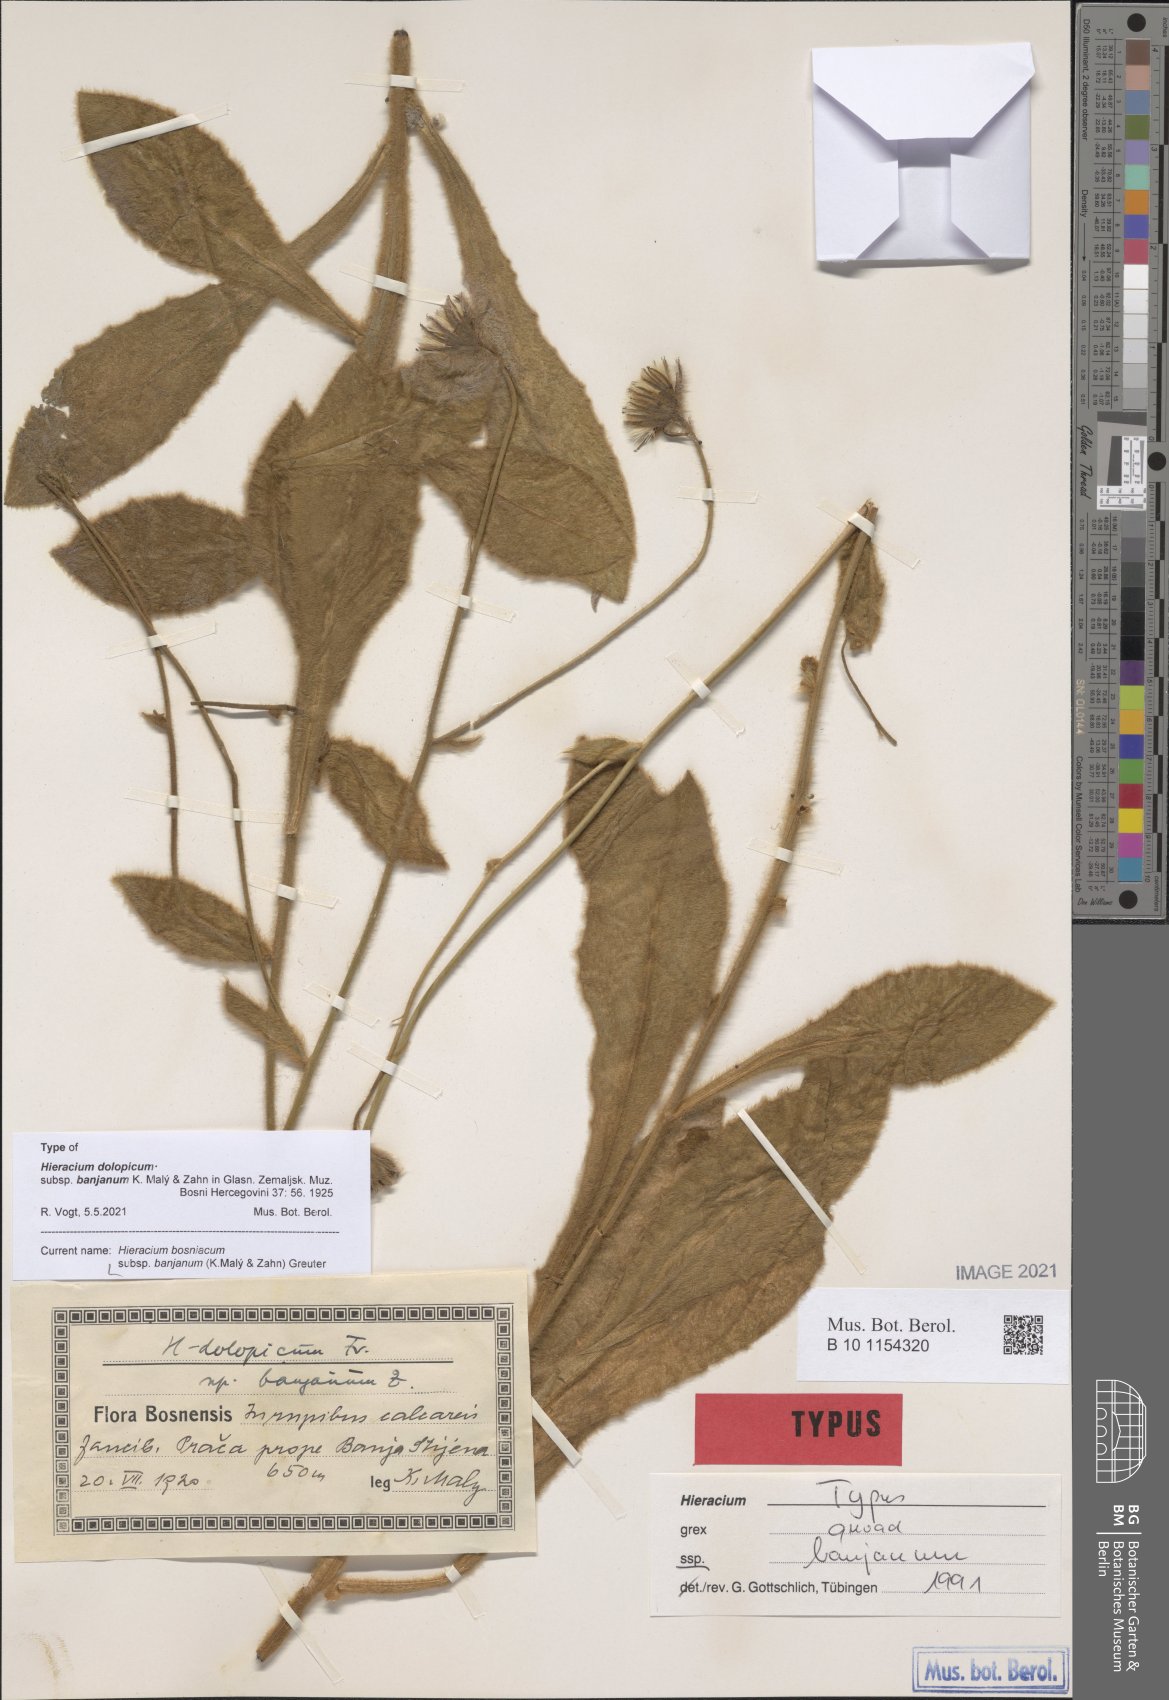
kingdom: Plantae
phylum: Tracheophyta
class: Magnoliopsida
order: Asterales
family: Asteraceae
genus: Hieracium
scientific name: Hieracium bosniacum
